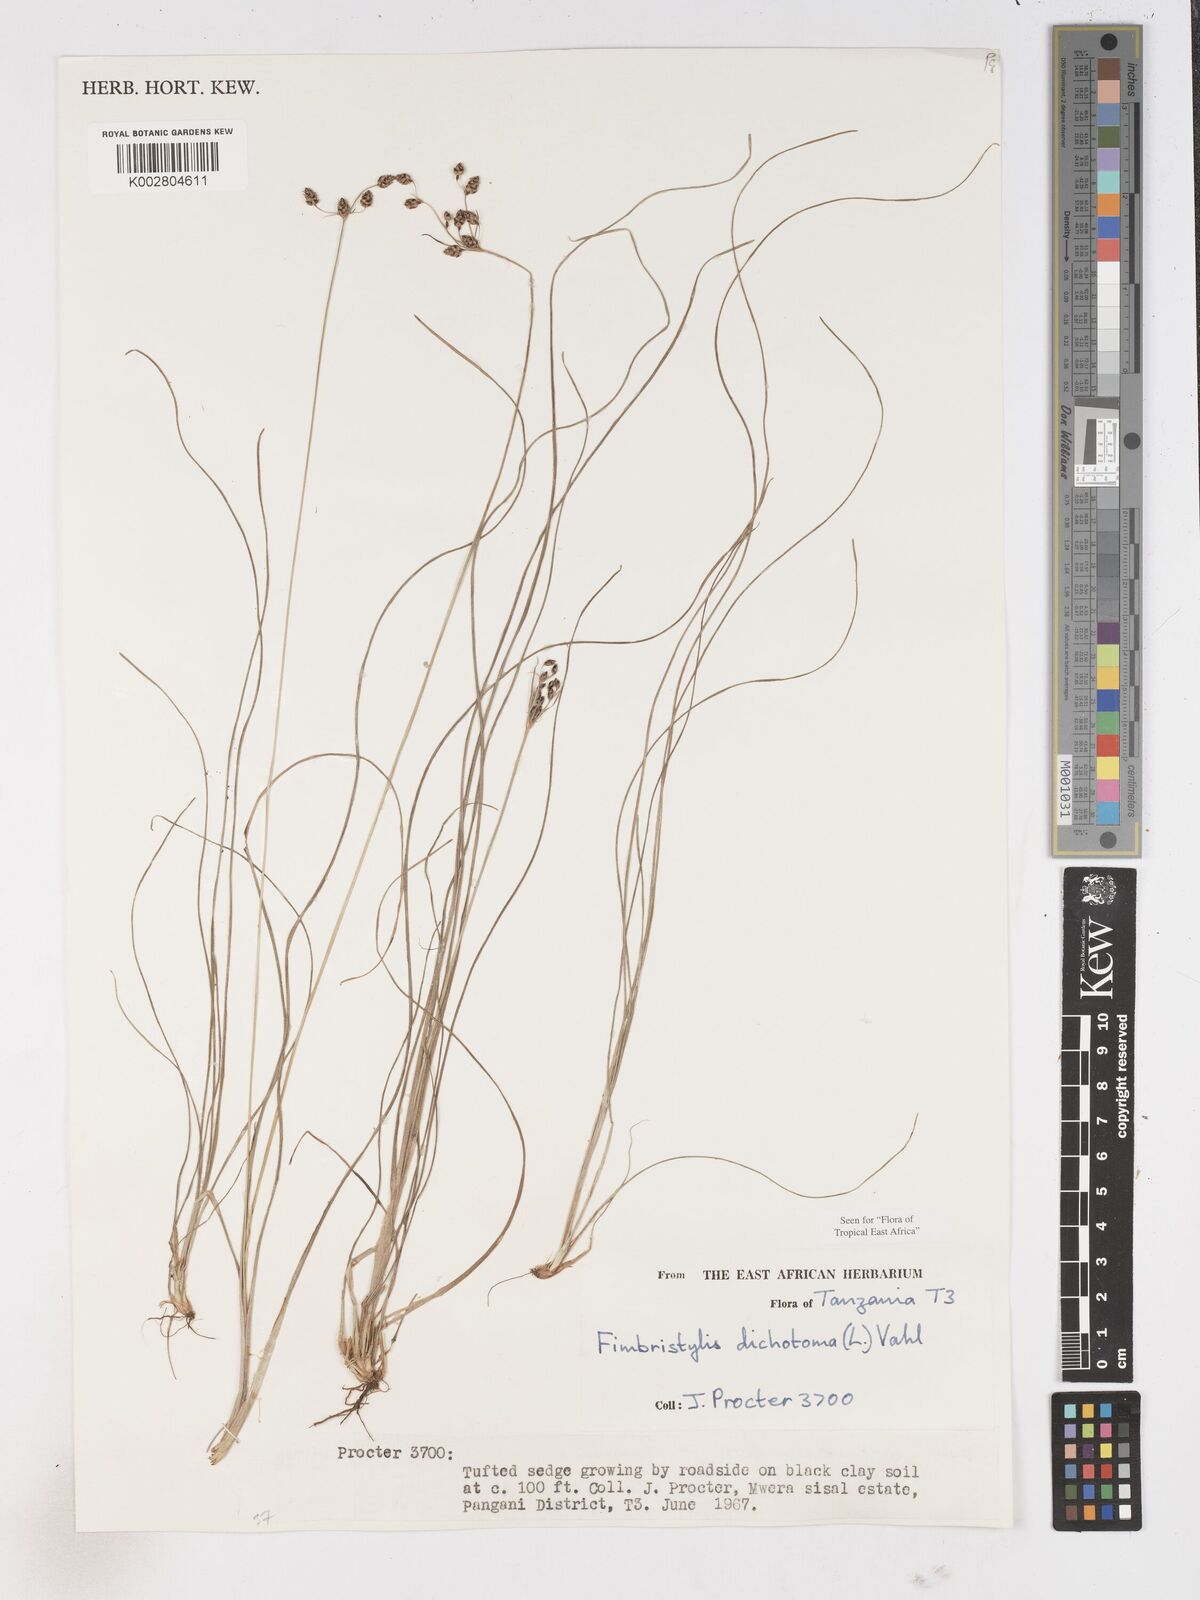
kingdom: Plantae
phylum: Tracheophyta
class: Liliopsida
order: Poales
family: Cyperaceae
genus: Fimbristylis
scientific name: Fimbristylis dichotoma
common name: Forked fimbry
